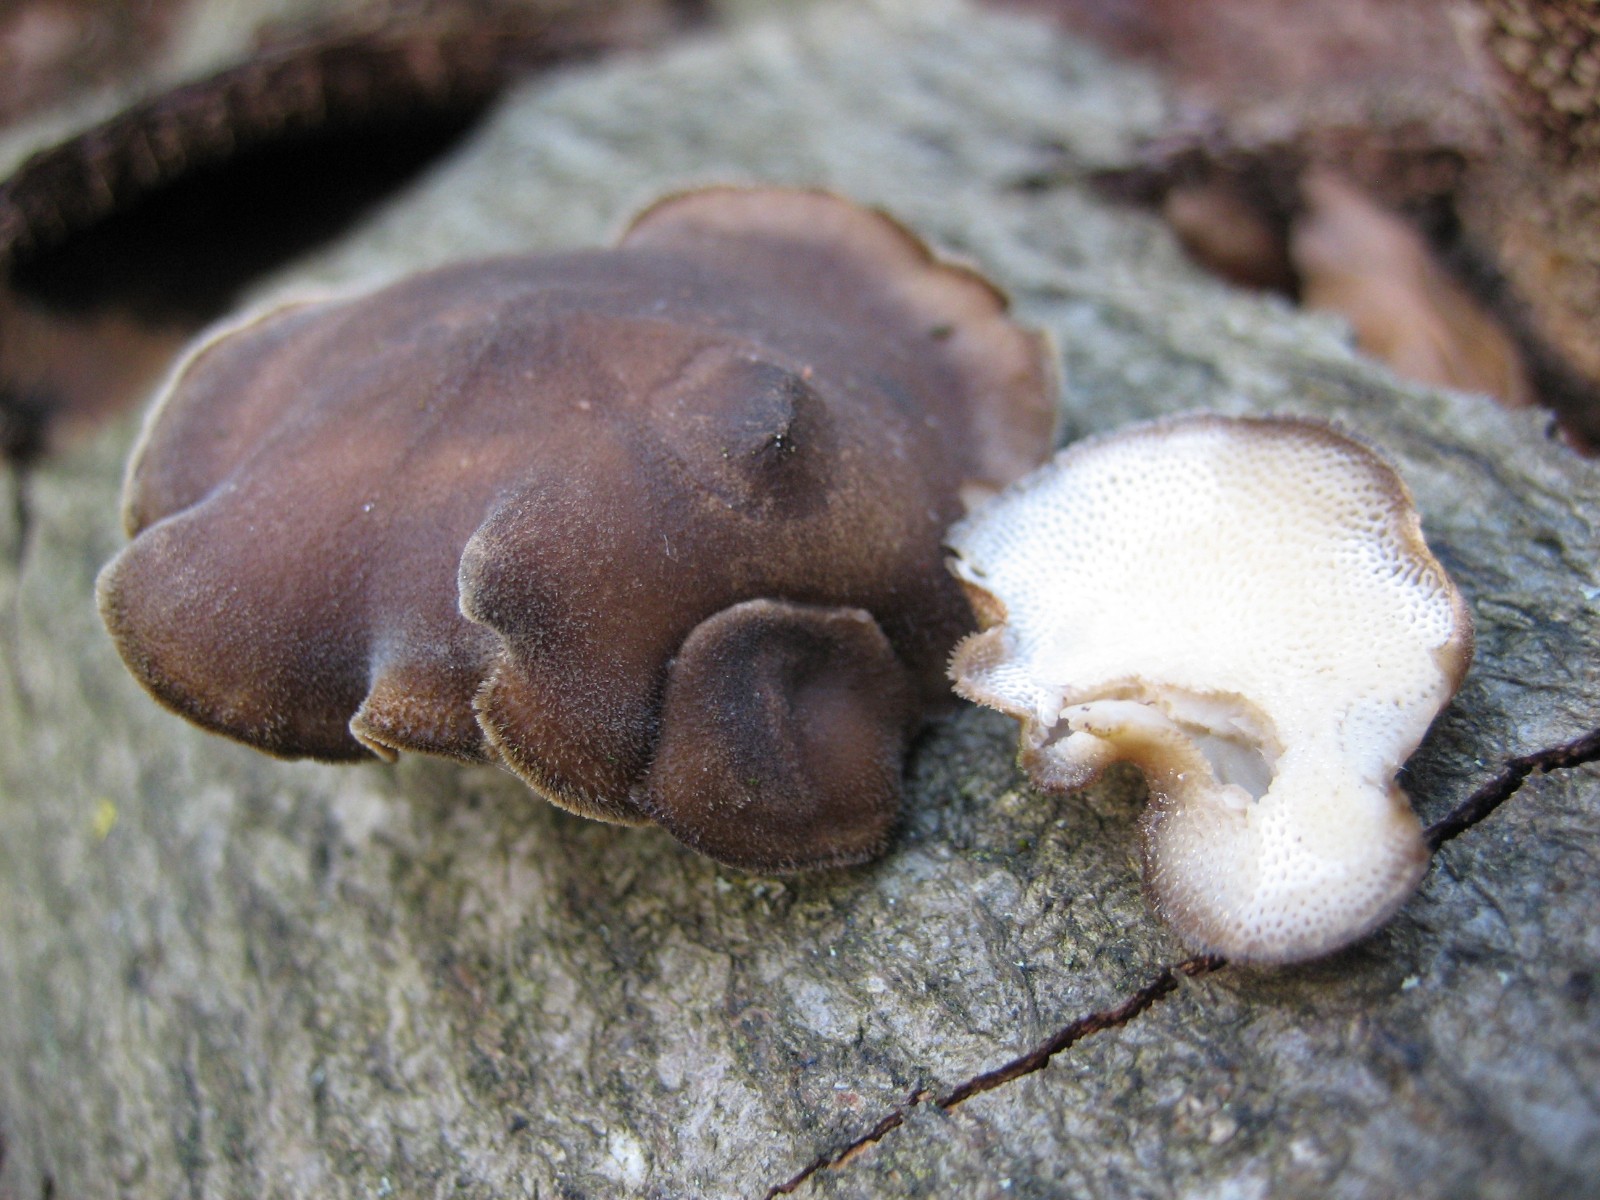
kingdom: Fungi
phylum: Basidiomycota
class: Agaricomycetes
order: Polyporales
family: Polyporaceae
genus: Lentinus
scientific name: Lentinus brumalis
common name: vinter-stilkporesvamp
